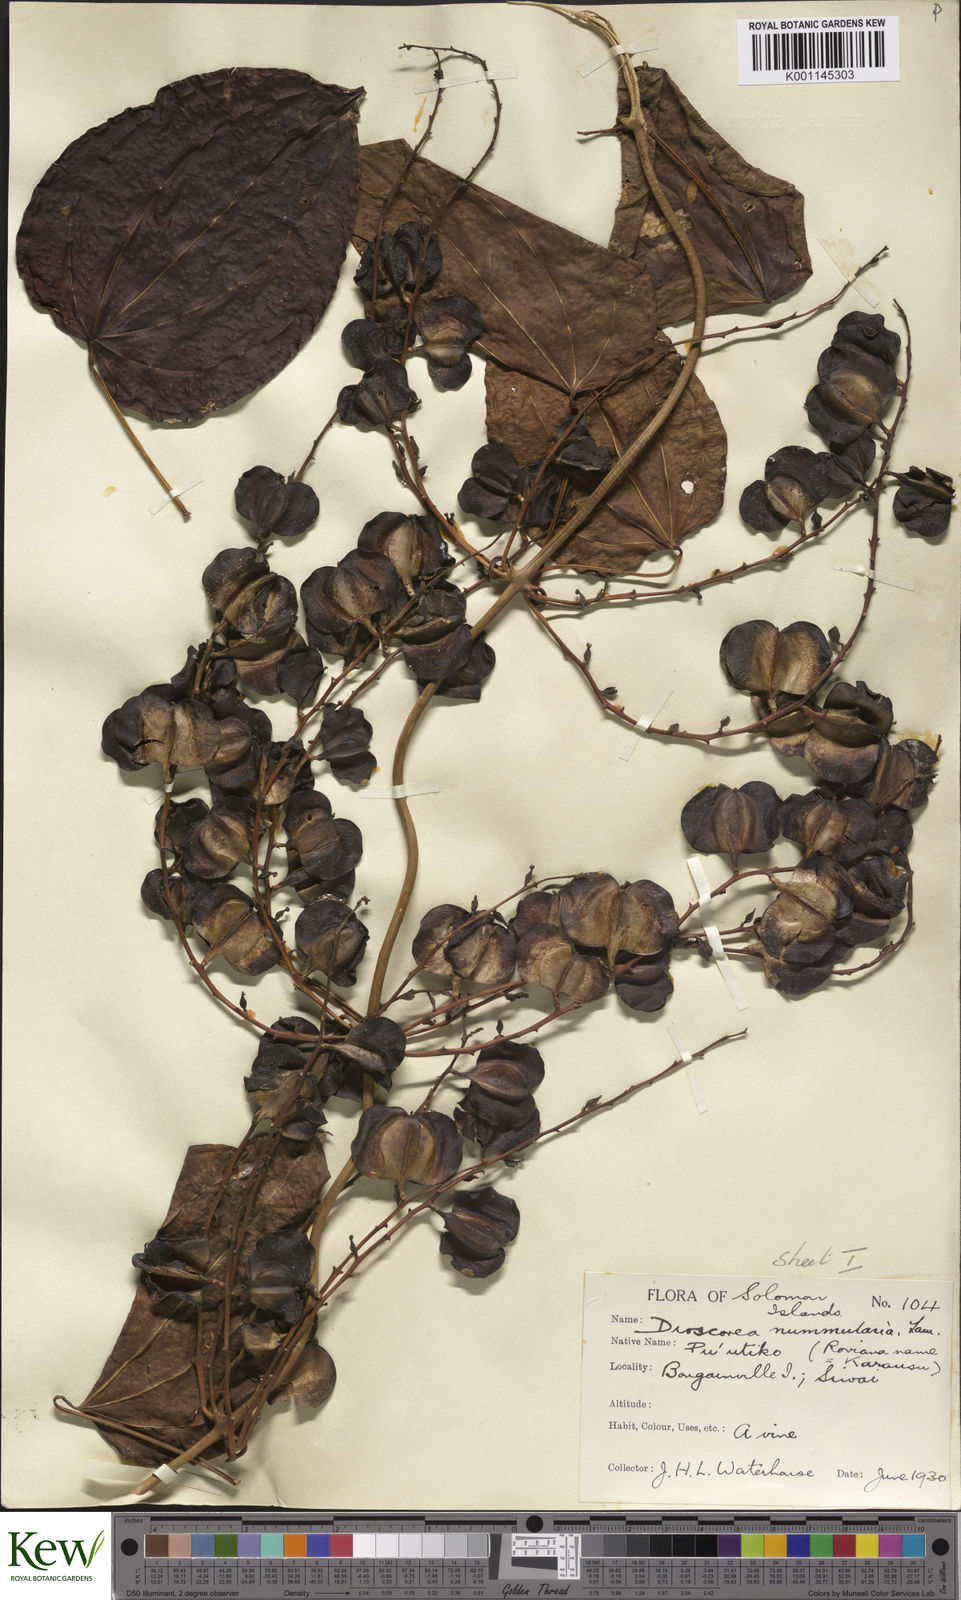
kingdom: Plantae
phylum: Tracheophyta
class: Liliopsida
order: Dioscoreales
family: Dioscoreaceae
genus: Dioscorea
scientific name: Dioscorea nummularia
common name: Pacific yam
